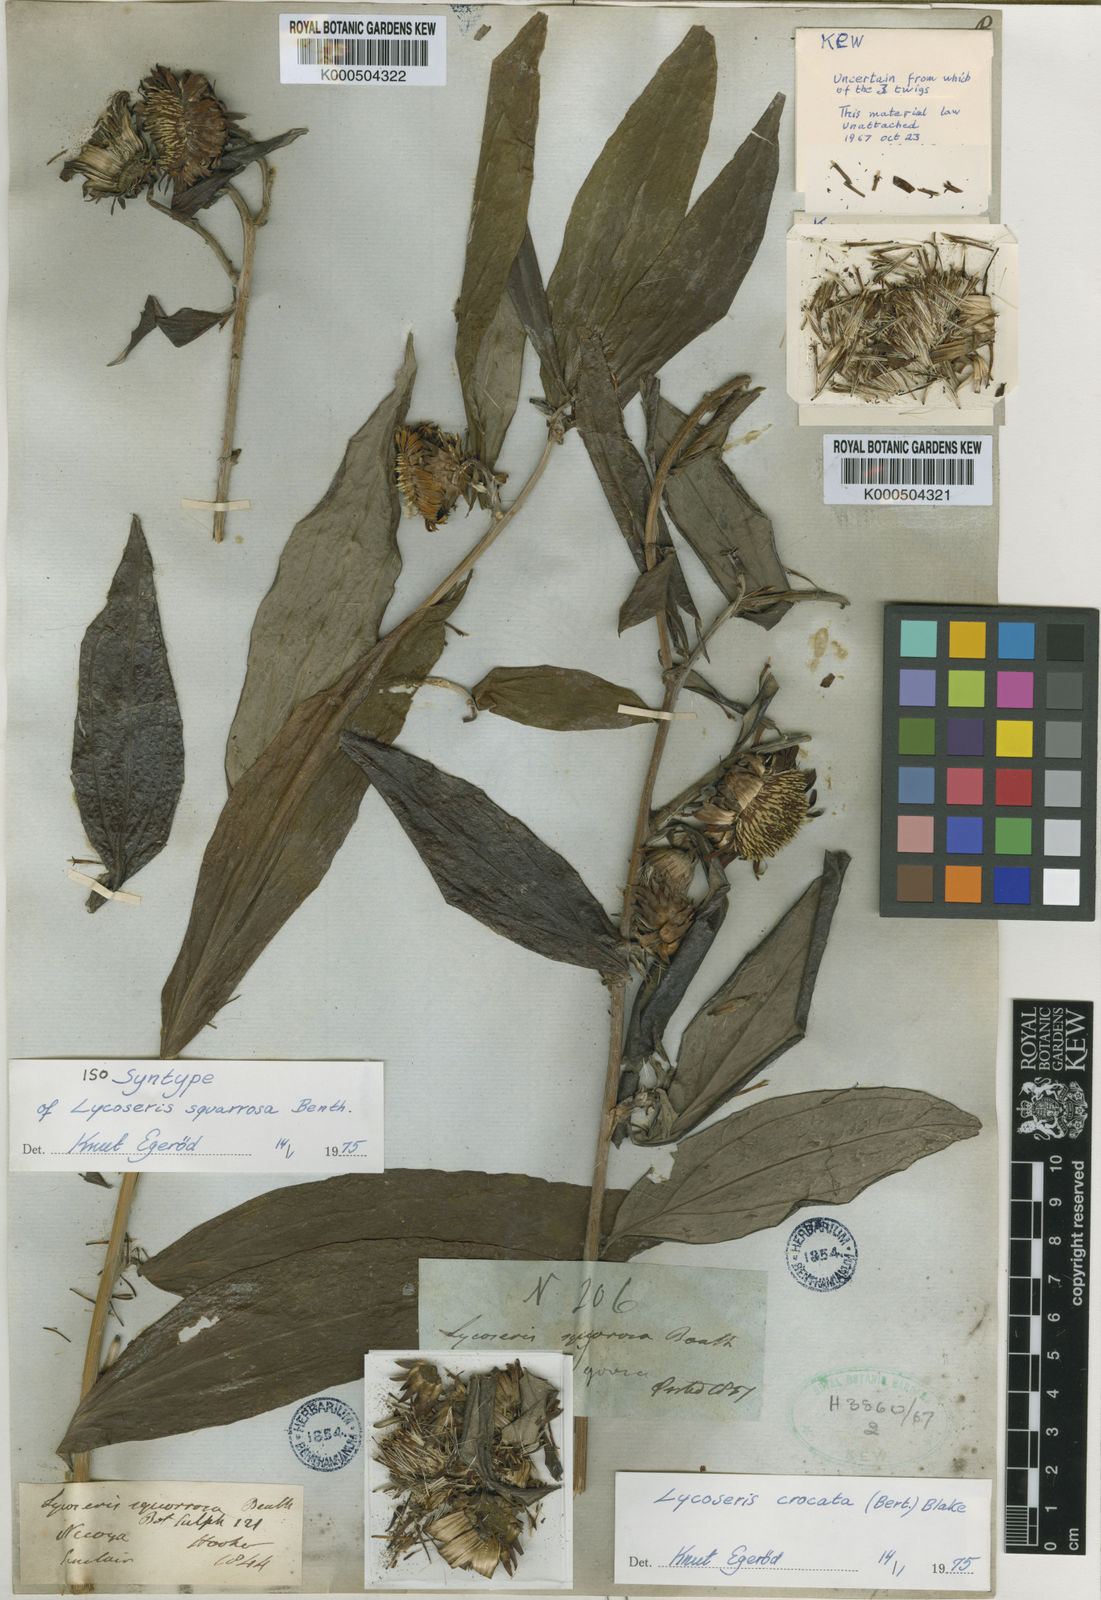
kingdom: Plantae
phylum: Tracheophyta
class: Magnoliopsida
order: Asterales
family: Asteraceae
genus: Lycoseris
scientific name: Lycoseris crocata
